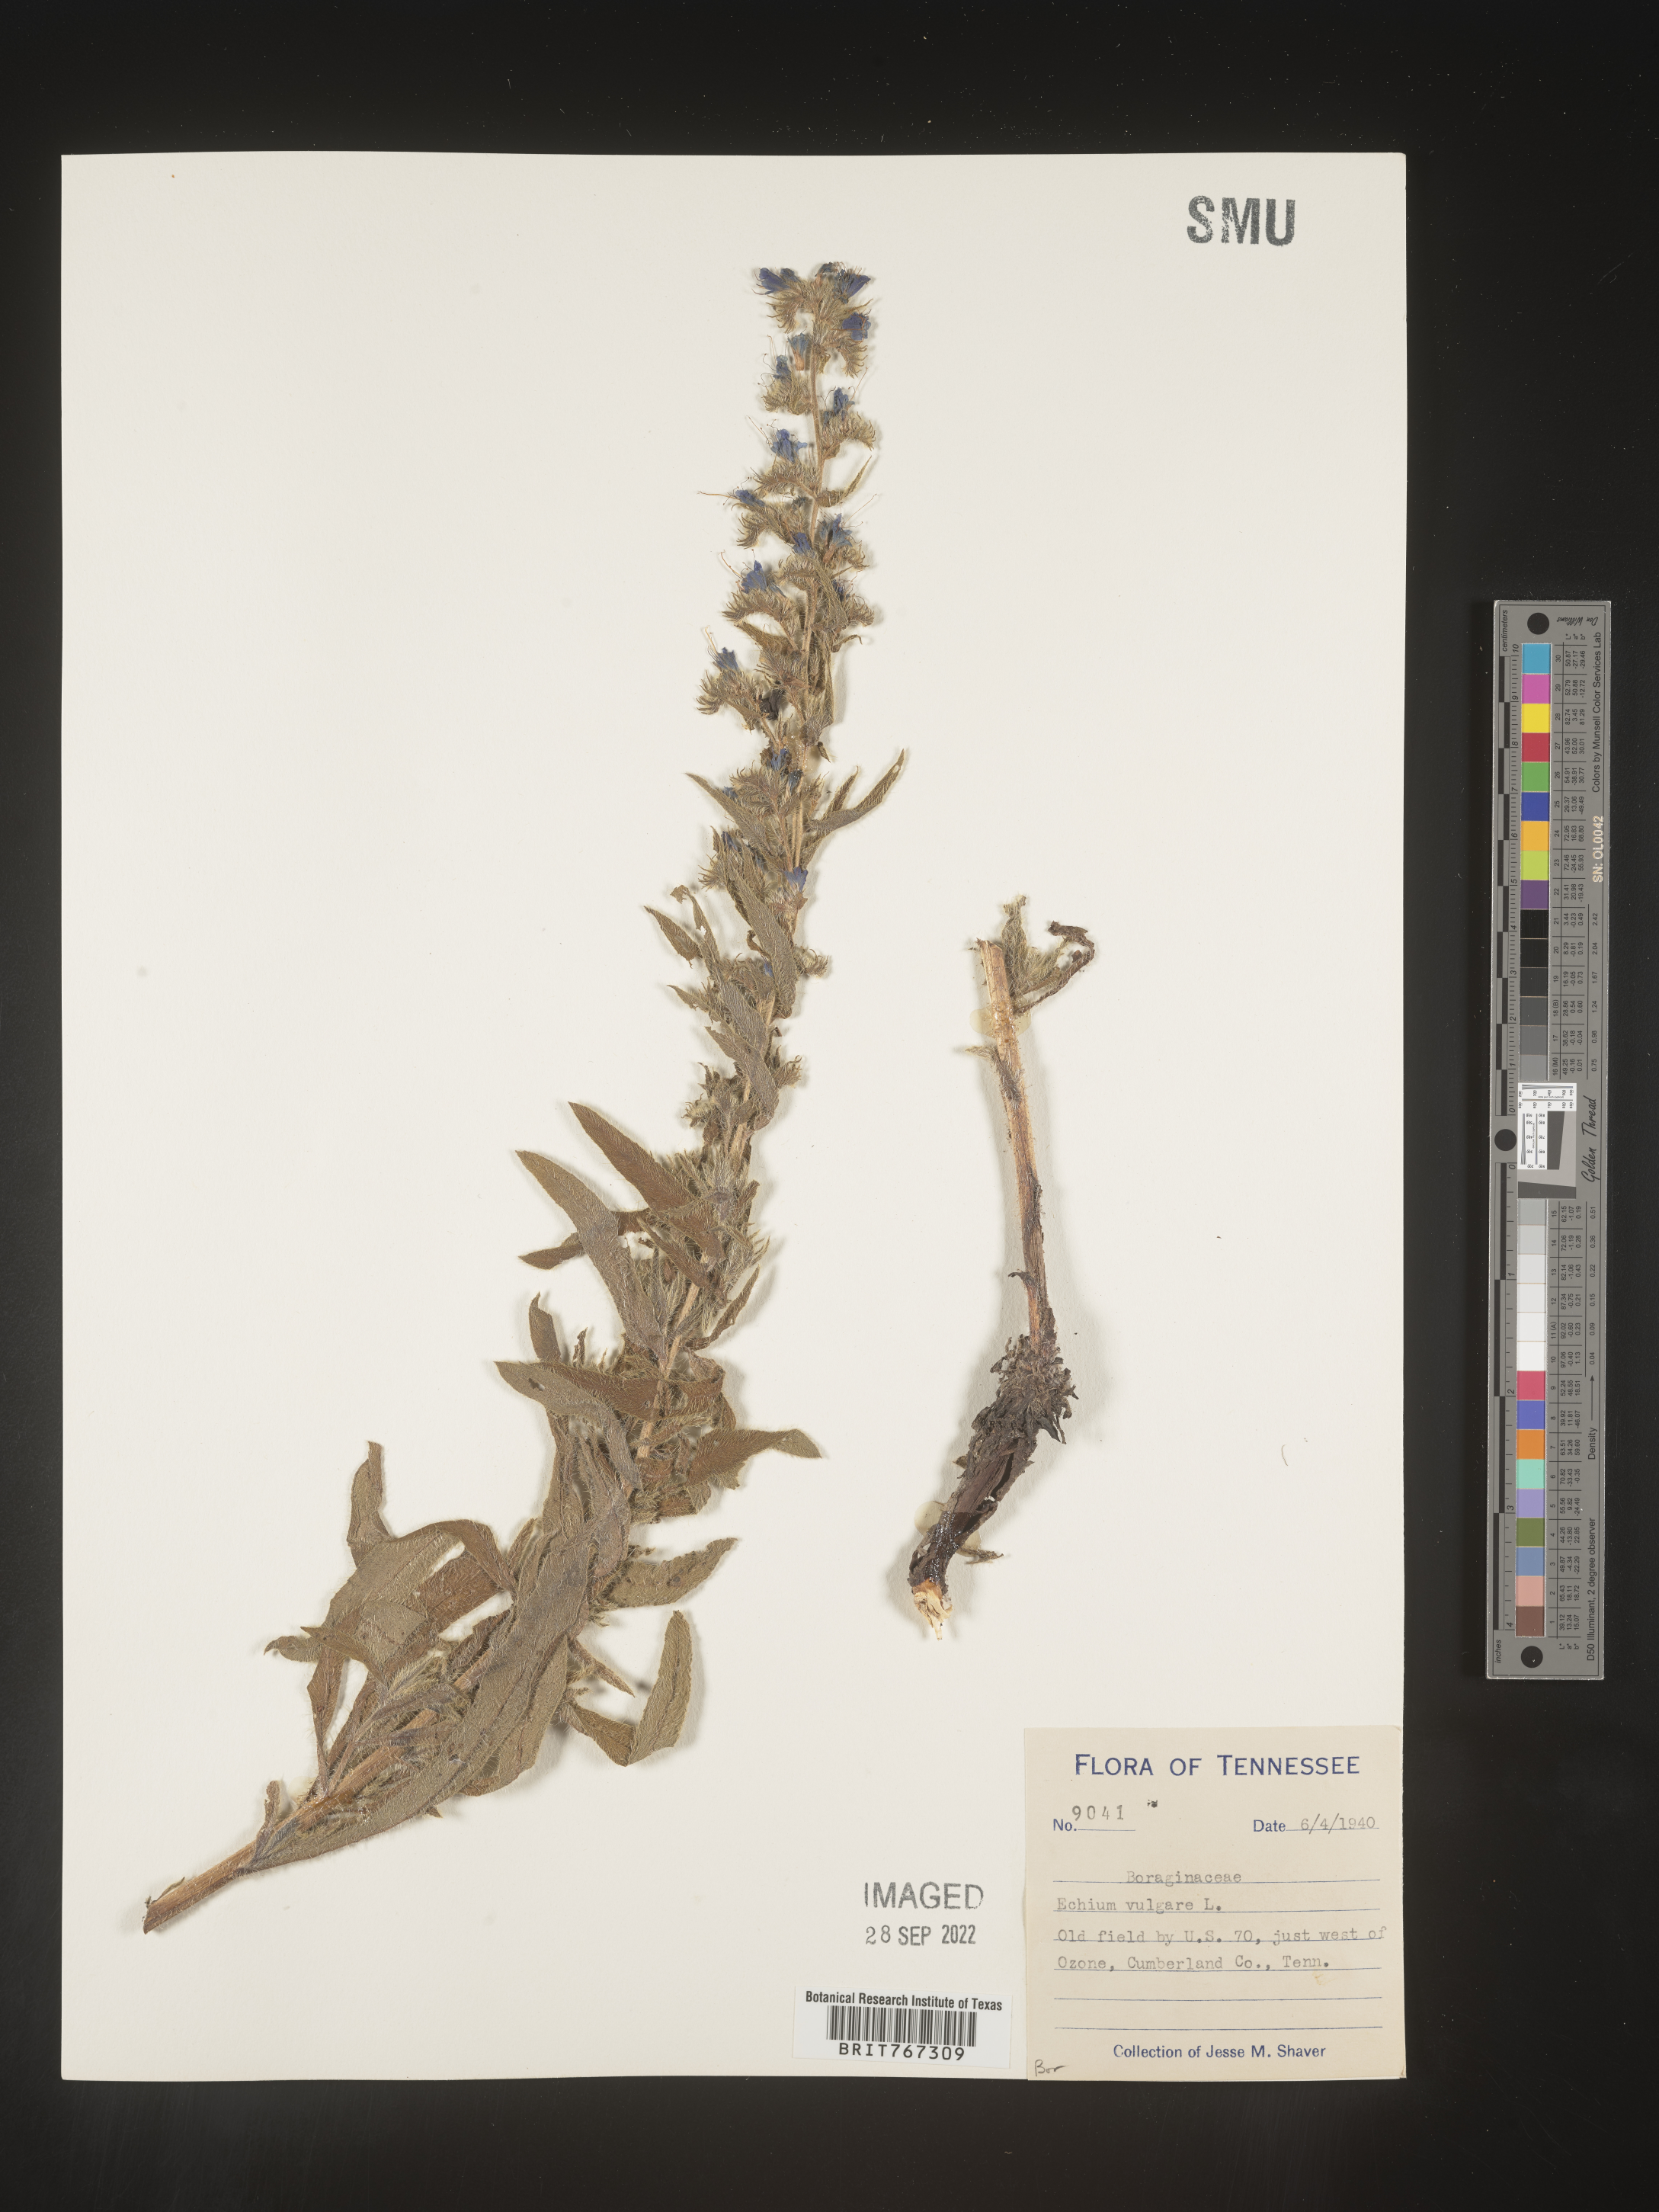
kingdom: Plantae
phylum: Tracheophyta
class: Magnoliopsida
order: Boraginales
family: Boraginaceae
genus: Echium
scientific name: Echium
